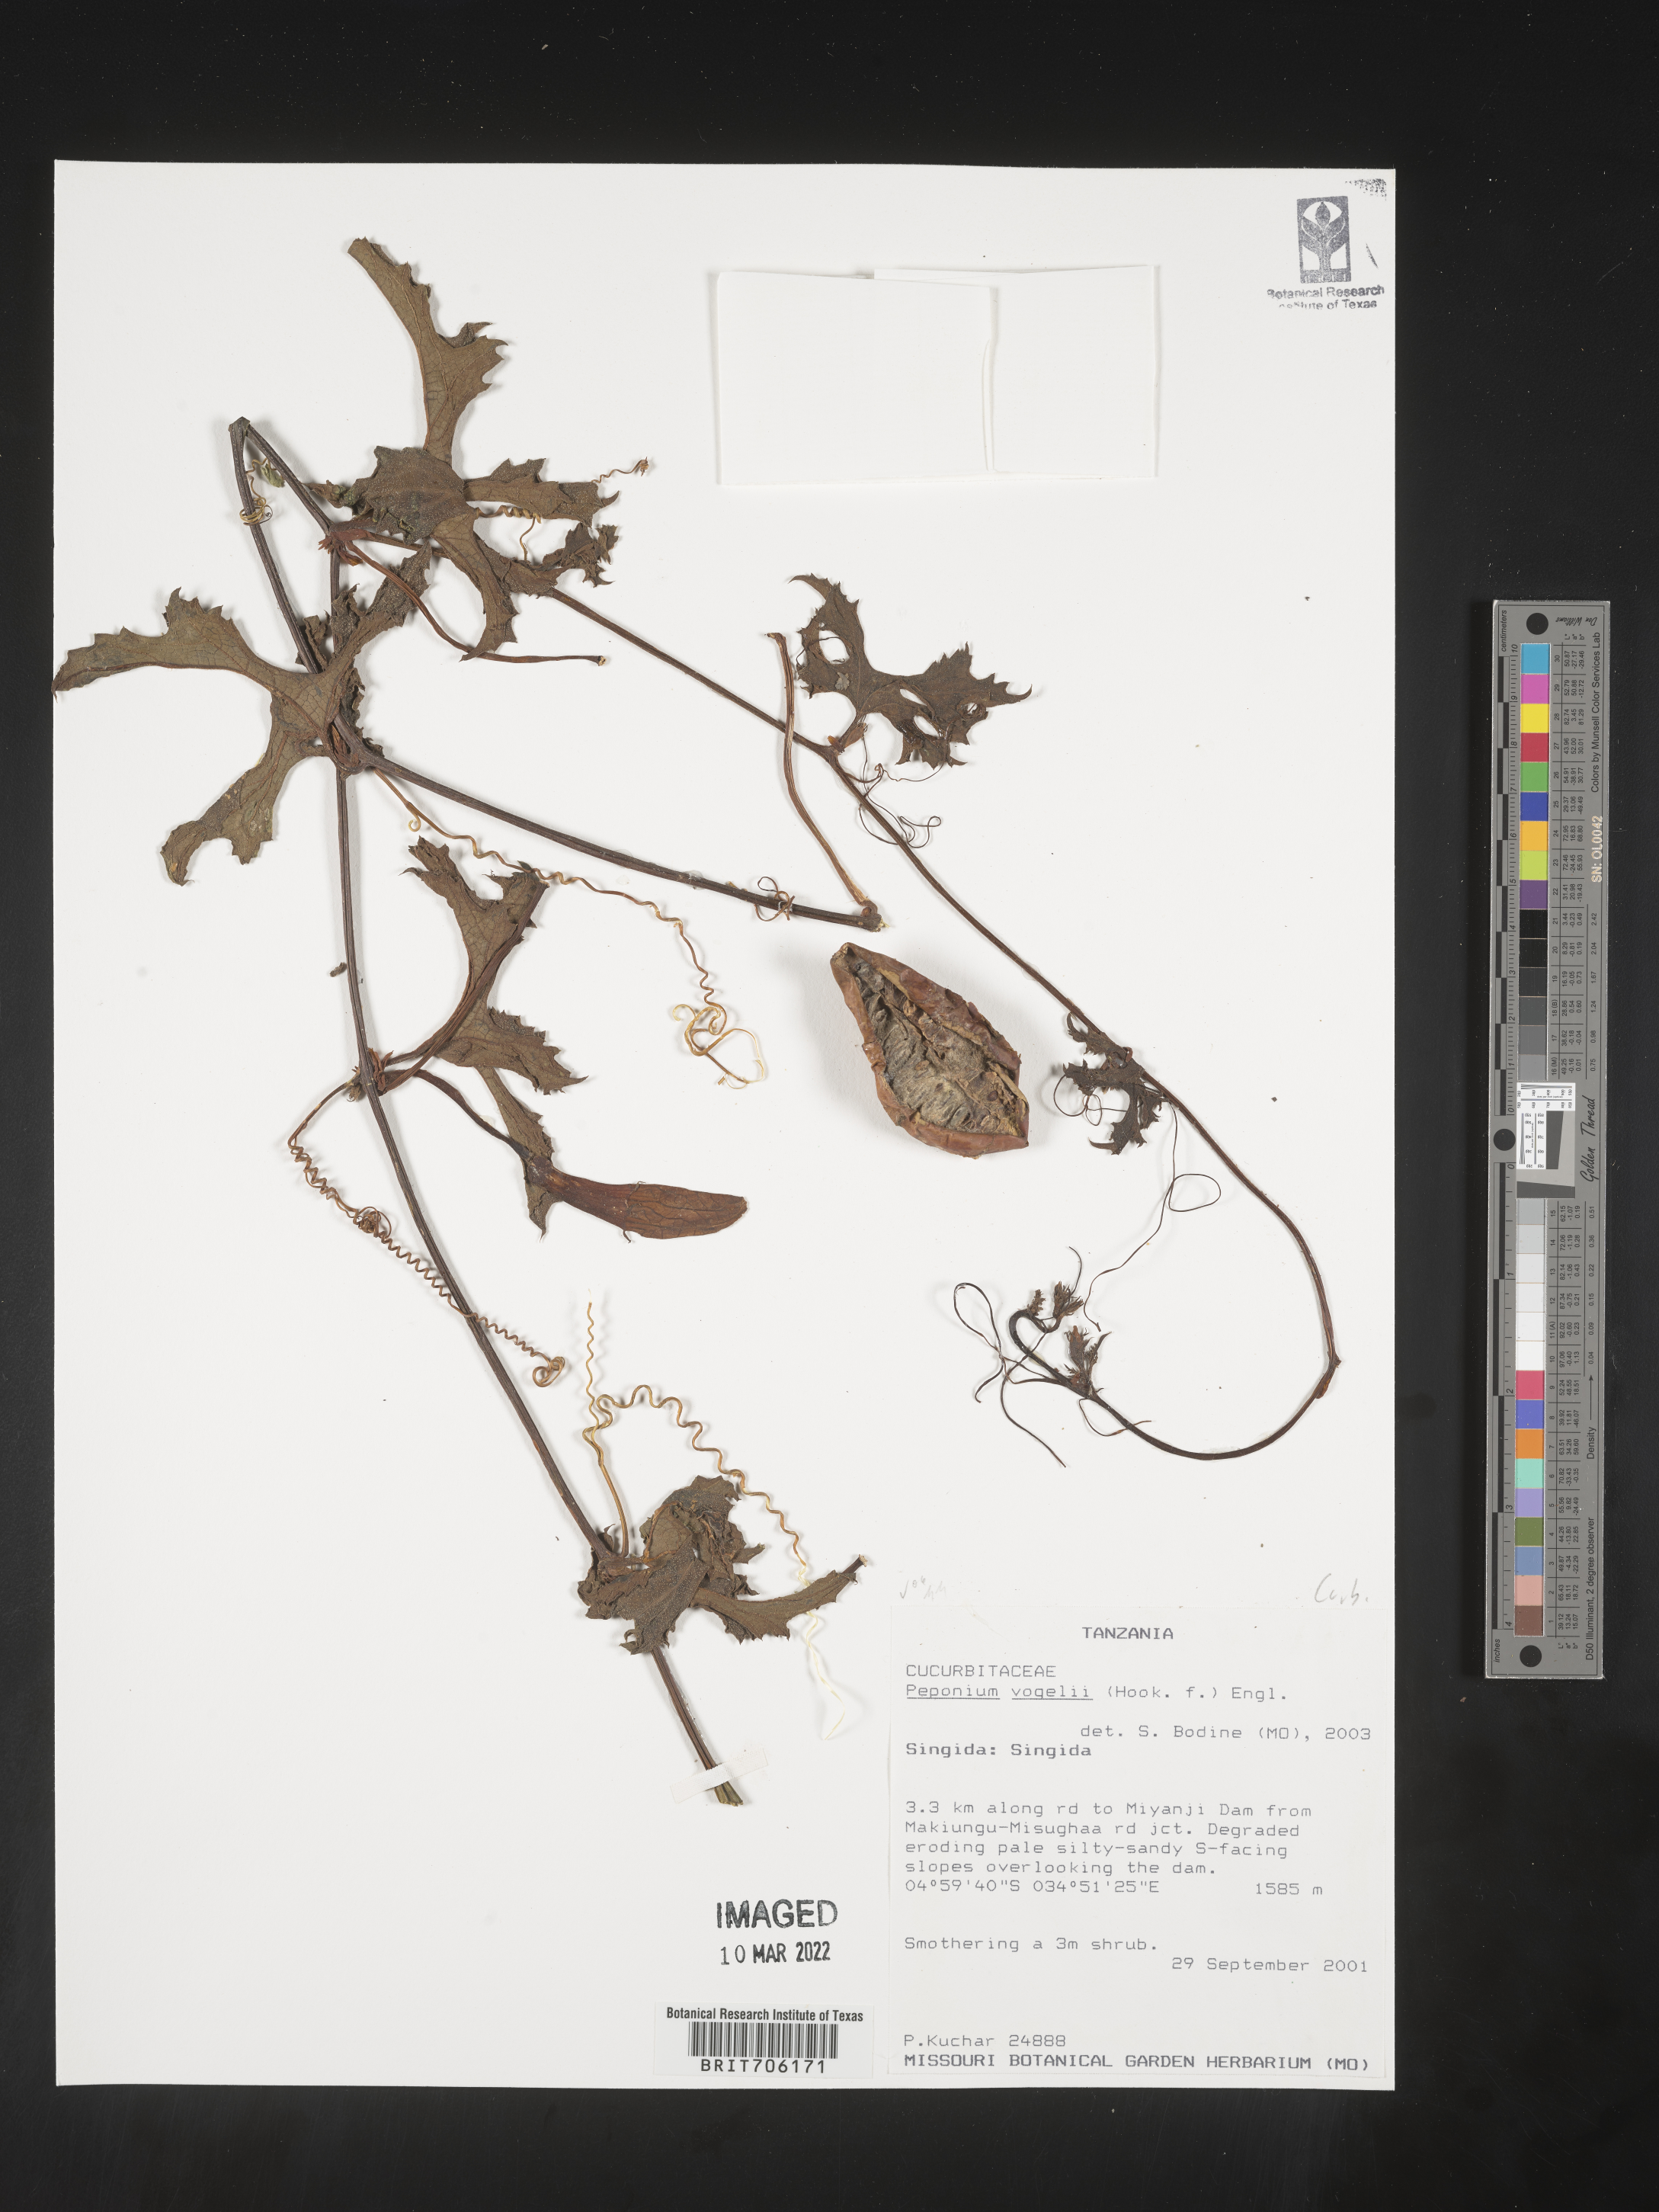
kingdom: Plantae
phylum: Tracheophyta
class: Magnoliopsida
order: Cucurbitales
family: Cucurbitaceae
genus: Peponium
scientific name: Peponium
